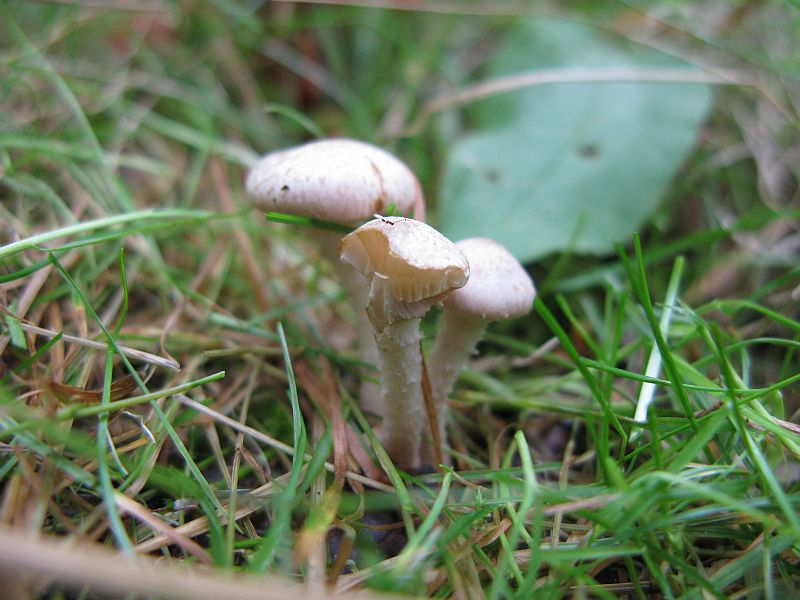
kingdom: Fungi
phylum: Basidiomycota
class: Agaricomycetes
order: Agaricales
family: Strophariaceae
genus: Pholiota
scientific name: Pholiota gummosa
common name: grøngul skælhat
